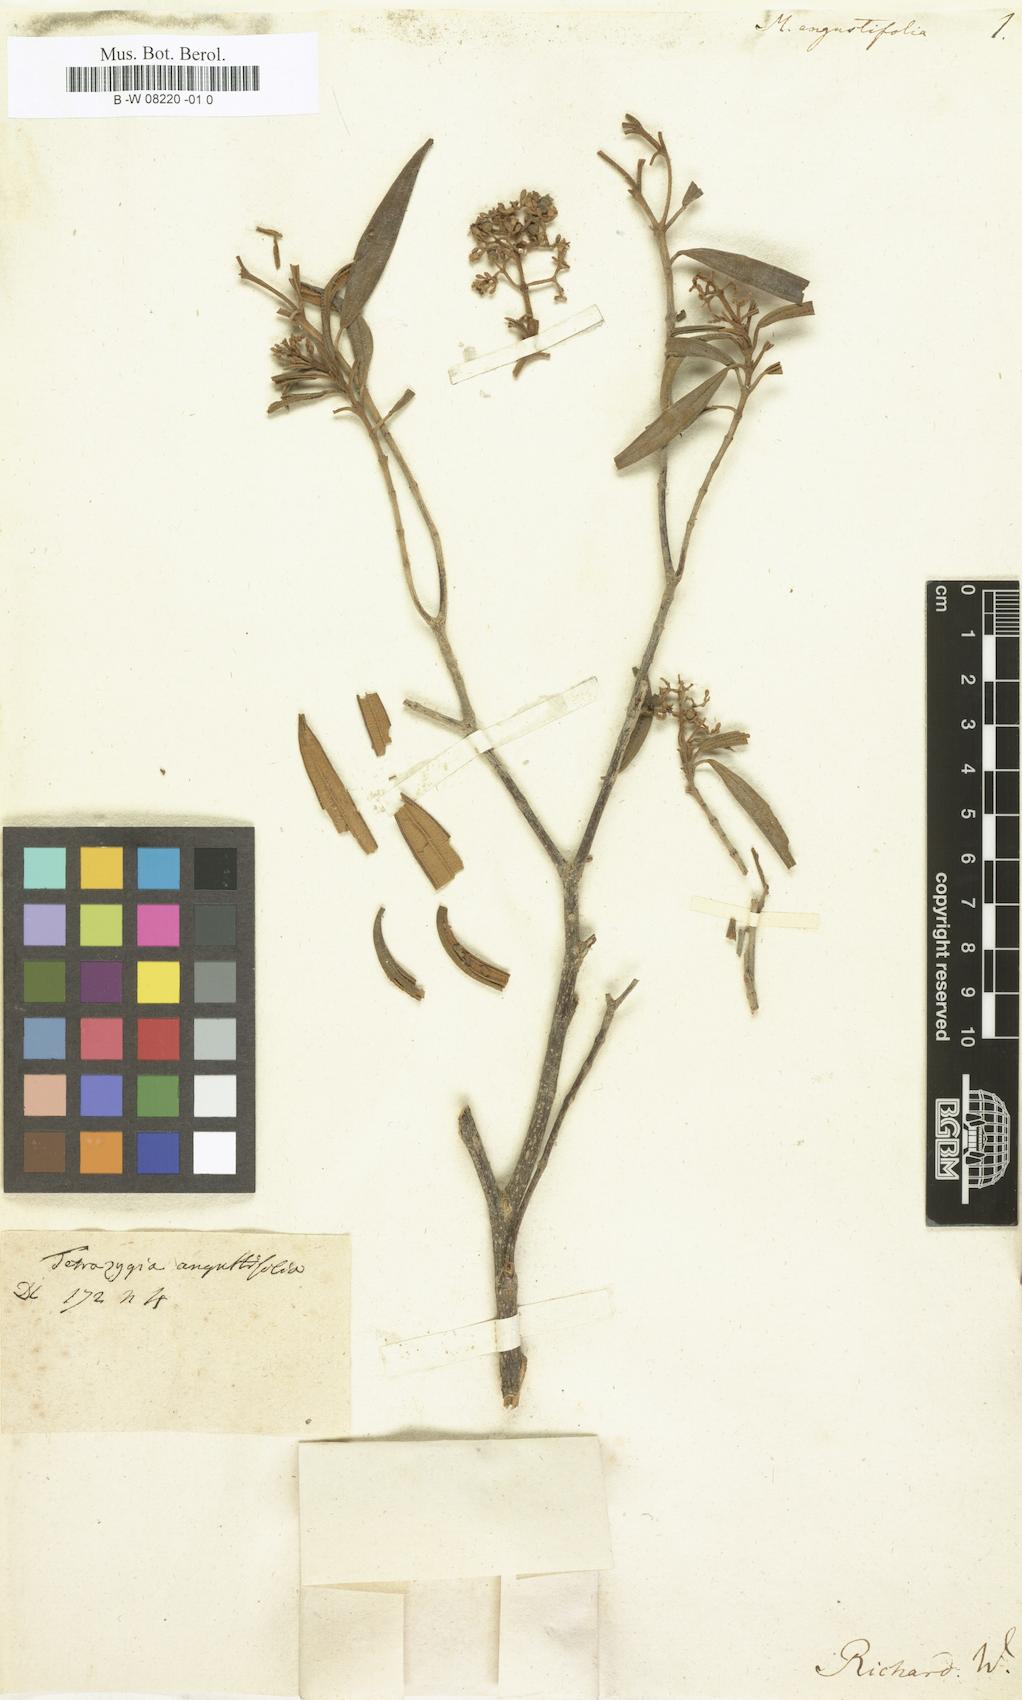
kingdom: Plantae
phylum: Tracheophyta
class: Magnoliopsida
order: Myrtales
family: Melastomataceae
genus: Melastoma
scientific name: Melastoma angustifolium
